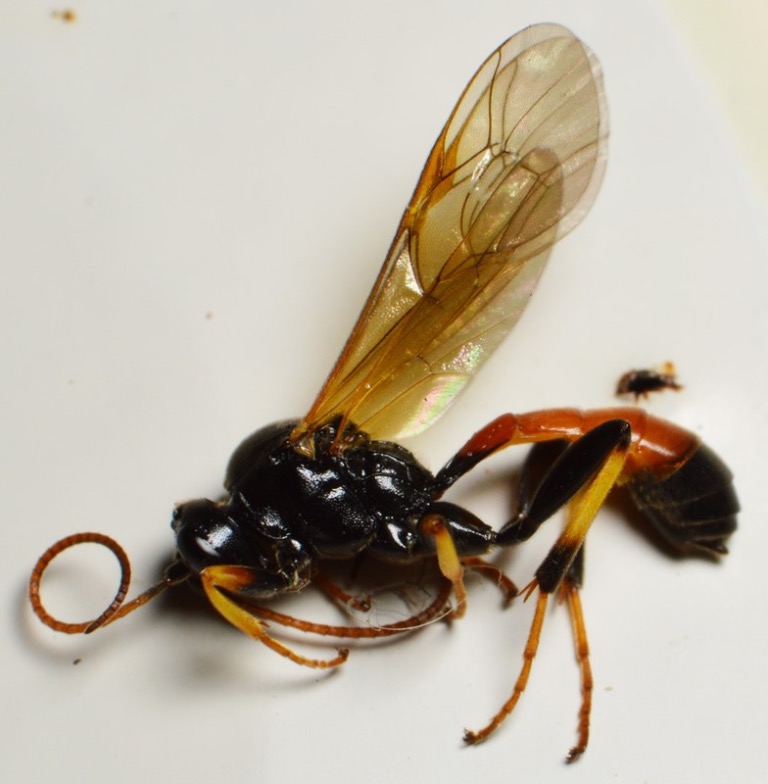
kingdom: Animalia
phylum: Arthropoda
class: Insecta
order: Hymenoptera
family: Ichneumonidae
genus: Cosmoconus
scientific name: Cosmoconus meridionator
